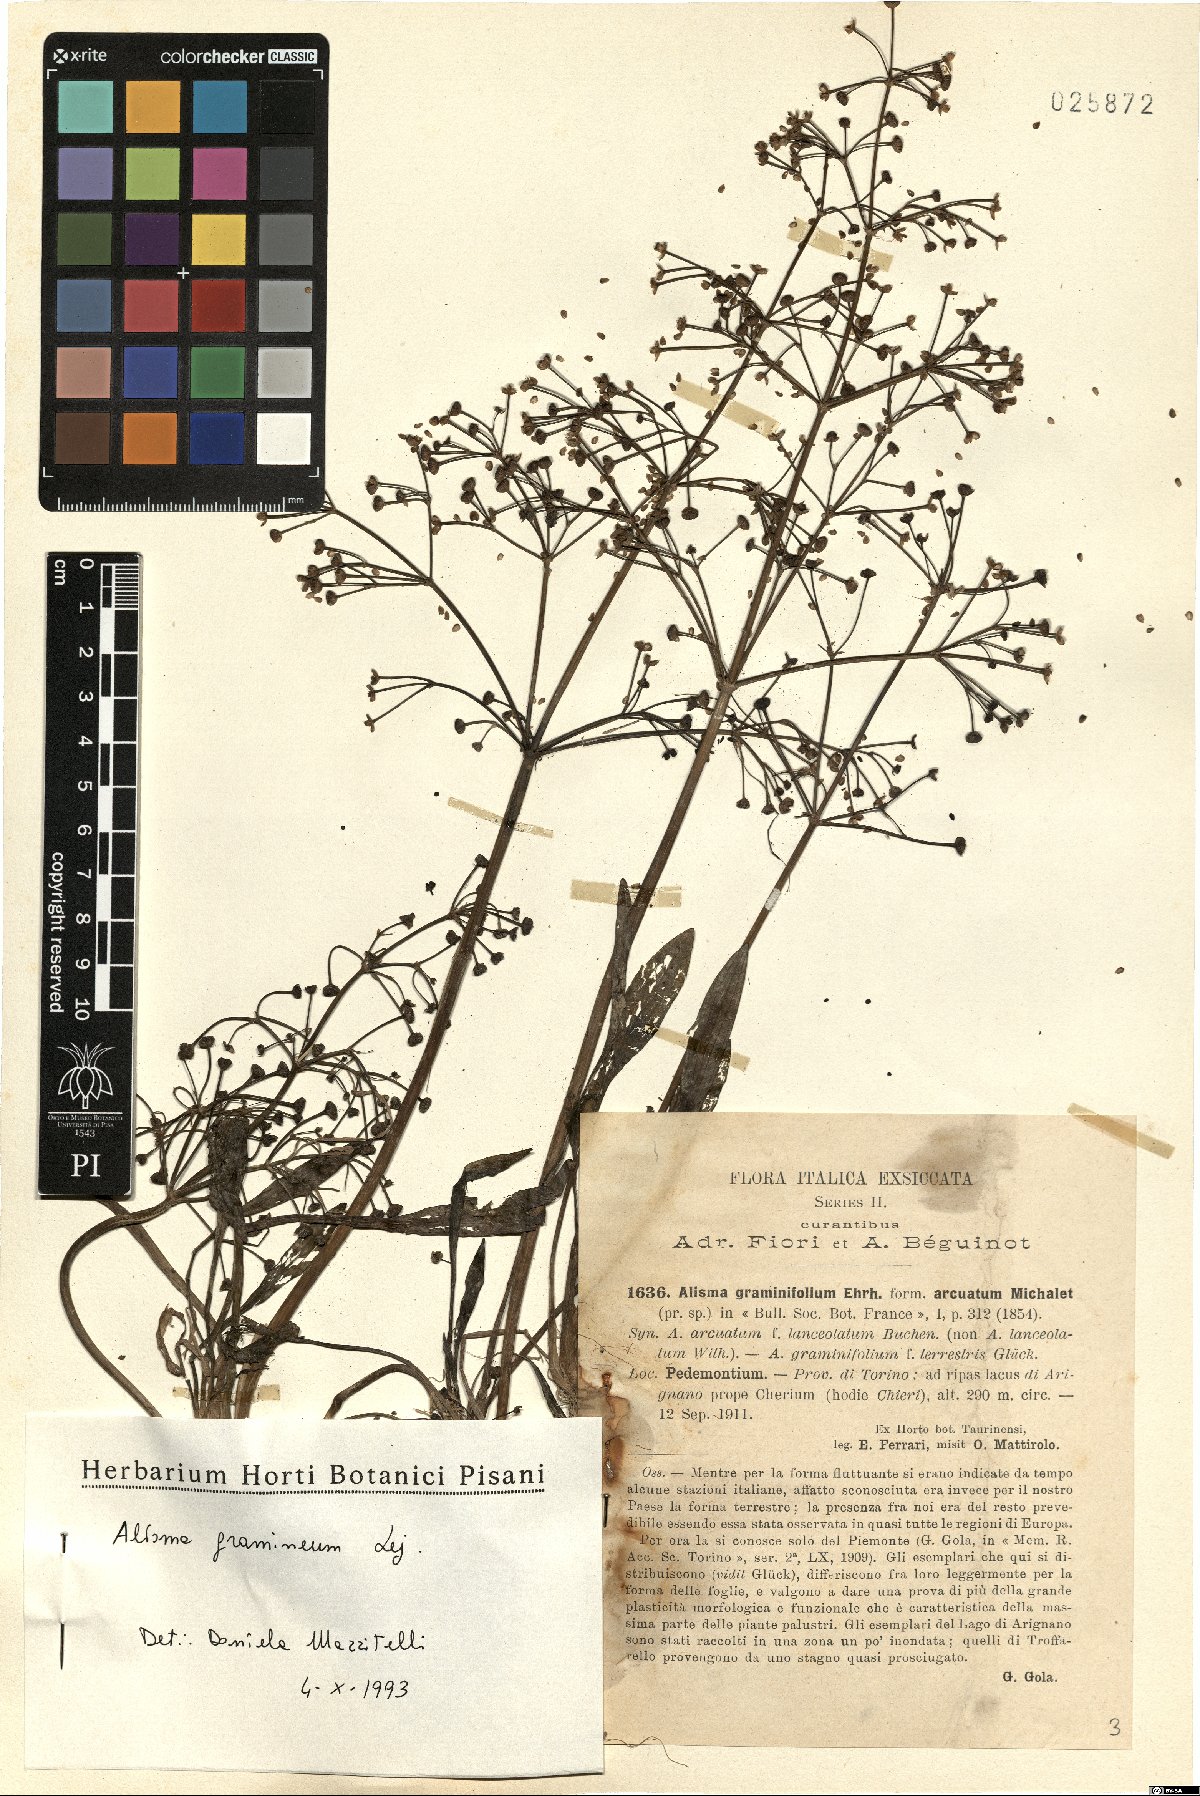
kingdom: Plantae
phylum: Tracheophyta
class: Liliopsida
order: Alismatales
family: Alismataceae
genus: Alisma
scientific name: Alisma gramineum
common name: Ribbon-leaved water-plantain
